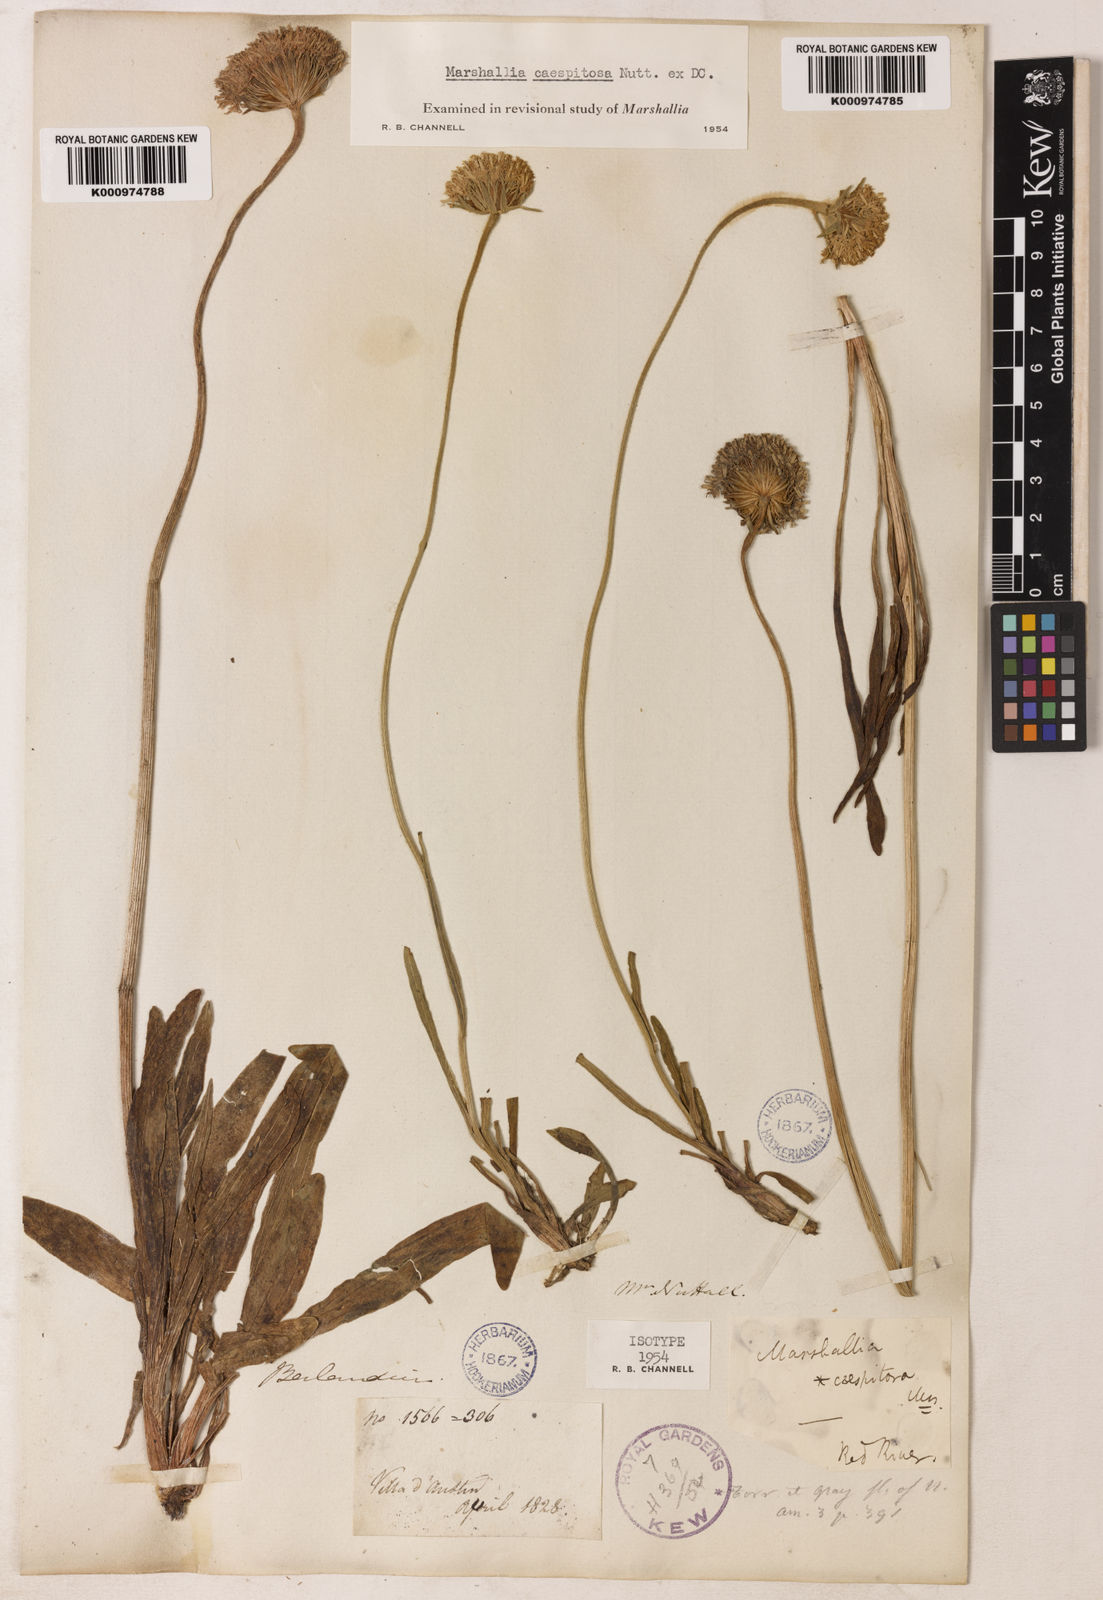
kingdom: Plantae
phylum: Tracheophyta
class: Magnoliopsida
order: Asterales
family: Asteraceae
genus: Marshallia
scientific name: Marshallia caespitosa
